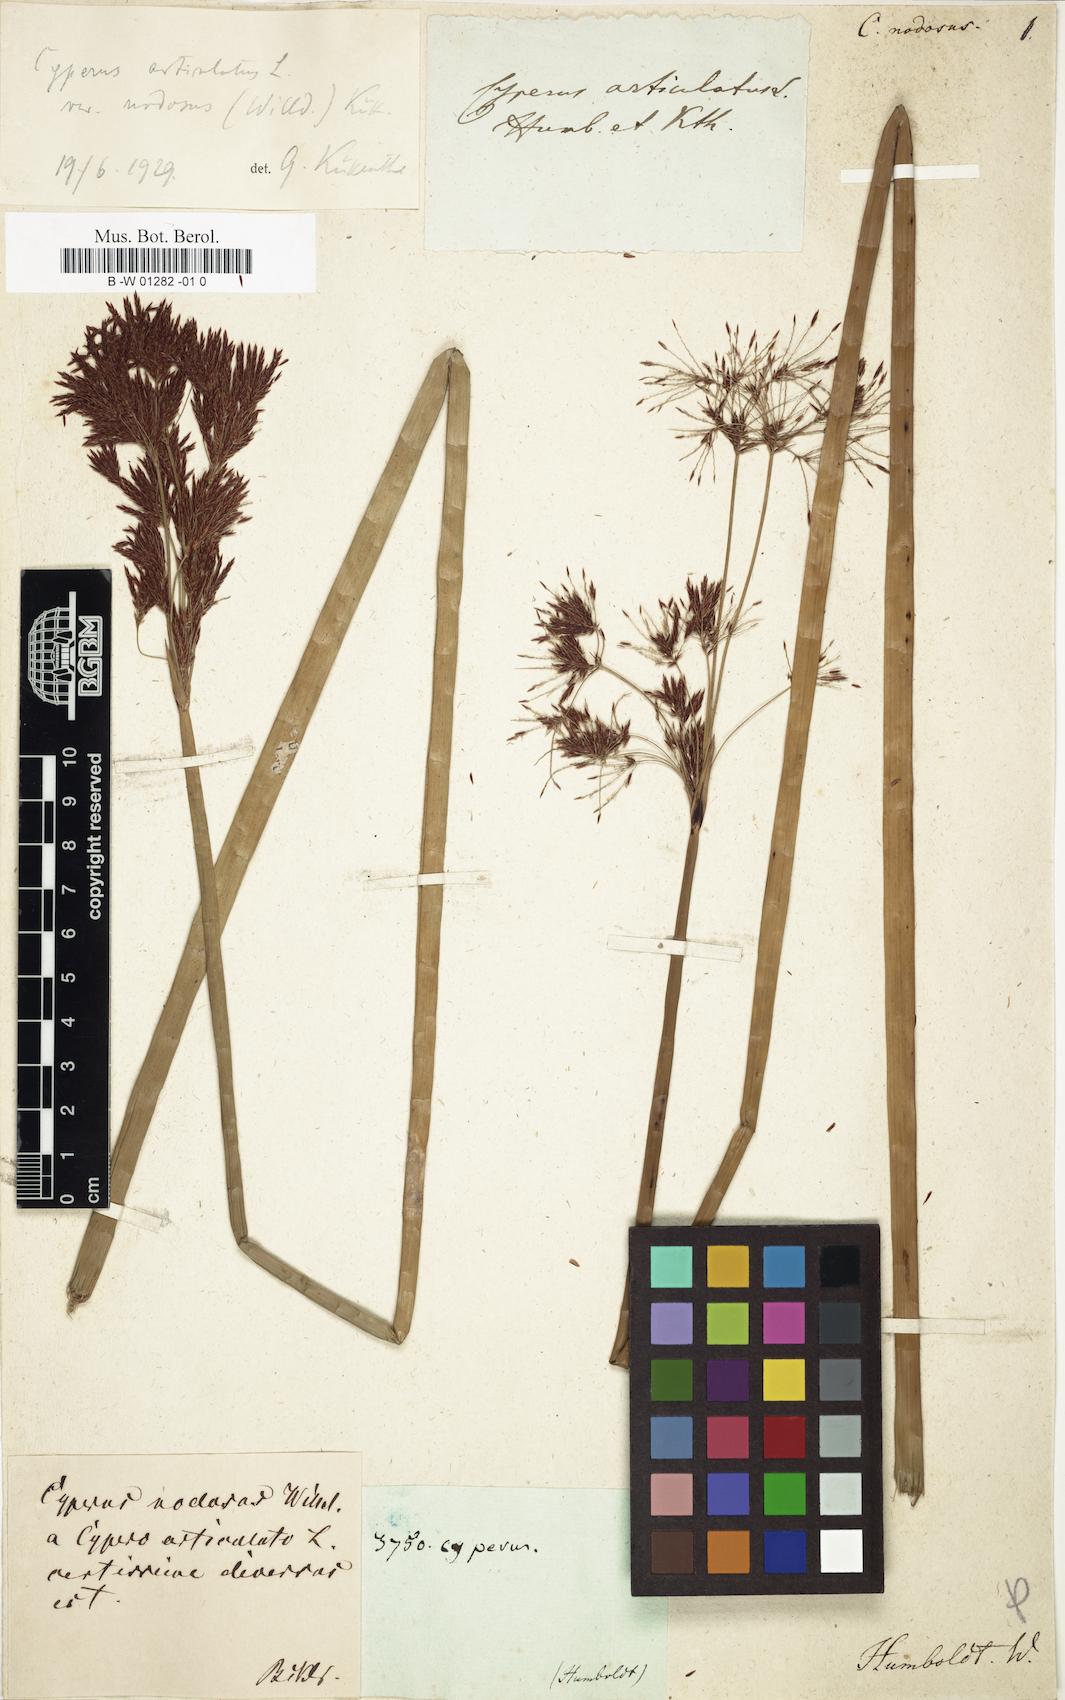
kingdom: Plantae
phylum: Tracheophyta
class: Liliopsida
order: Poales
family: Cyperaceae
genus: Cyperus
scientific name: Cyperus articulatus
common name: Jointed flatsedge
